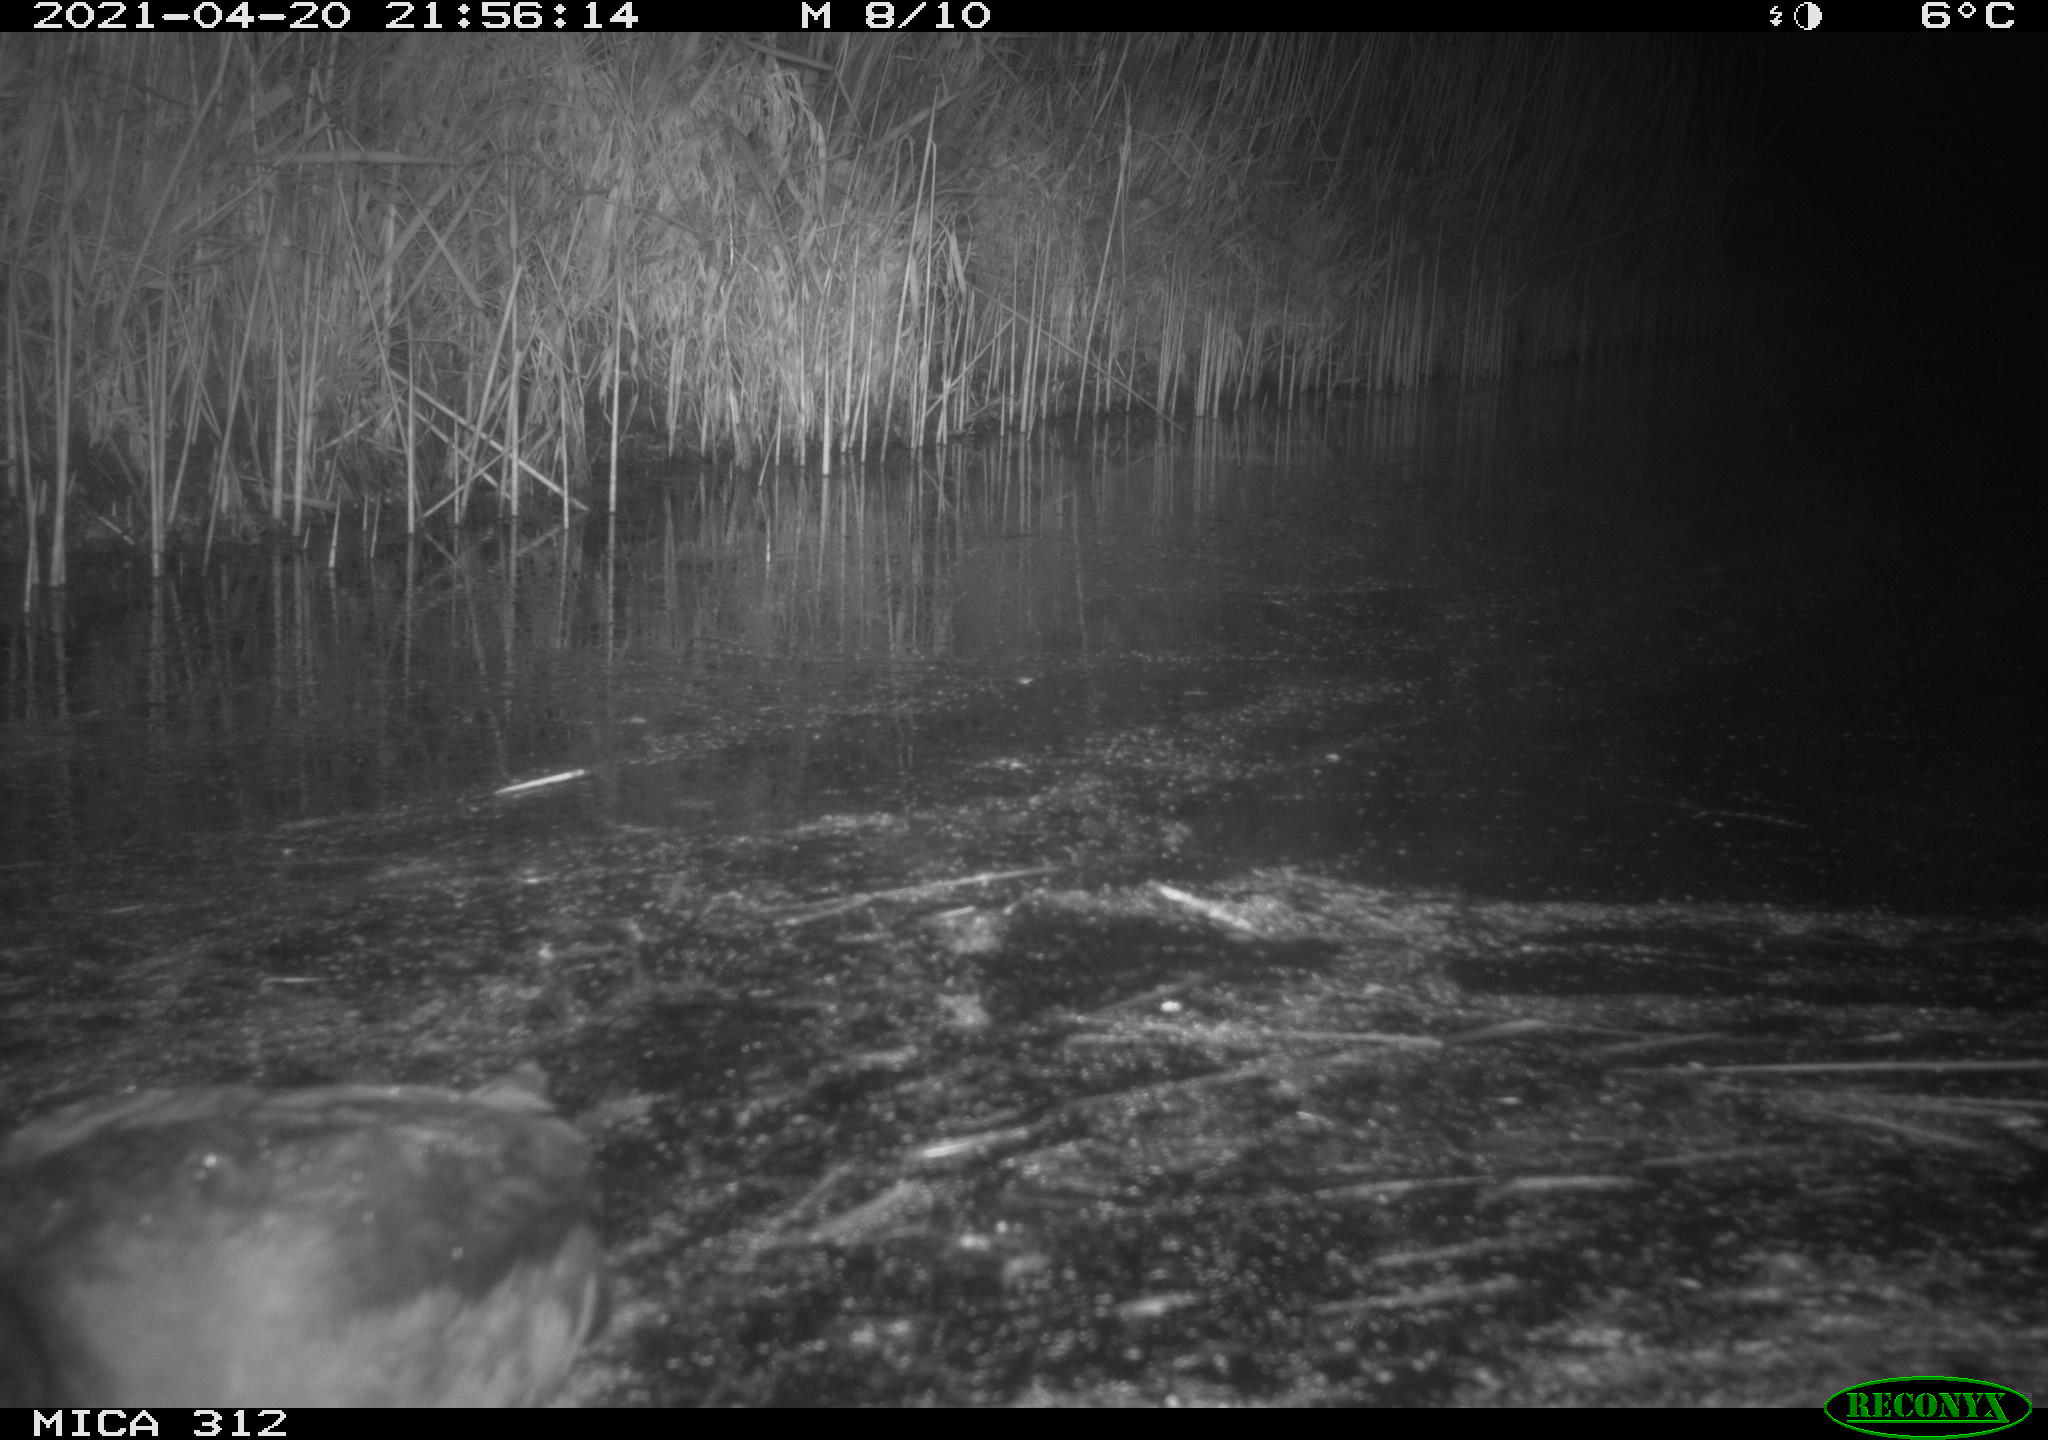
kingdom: Animalia
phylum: Chordata
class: Aves
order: Gruiformes
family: Rallidae
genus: Fulica
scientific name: Fulica atra
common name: Eurasian coot
